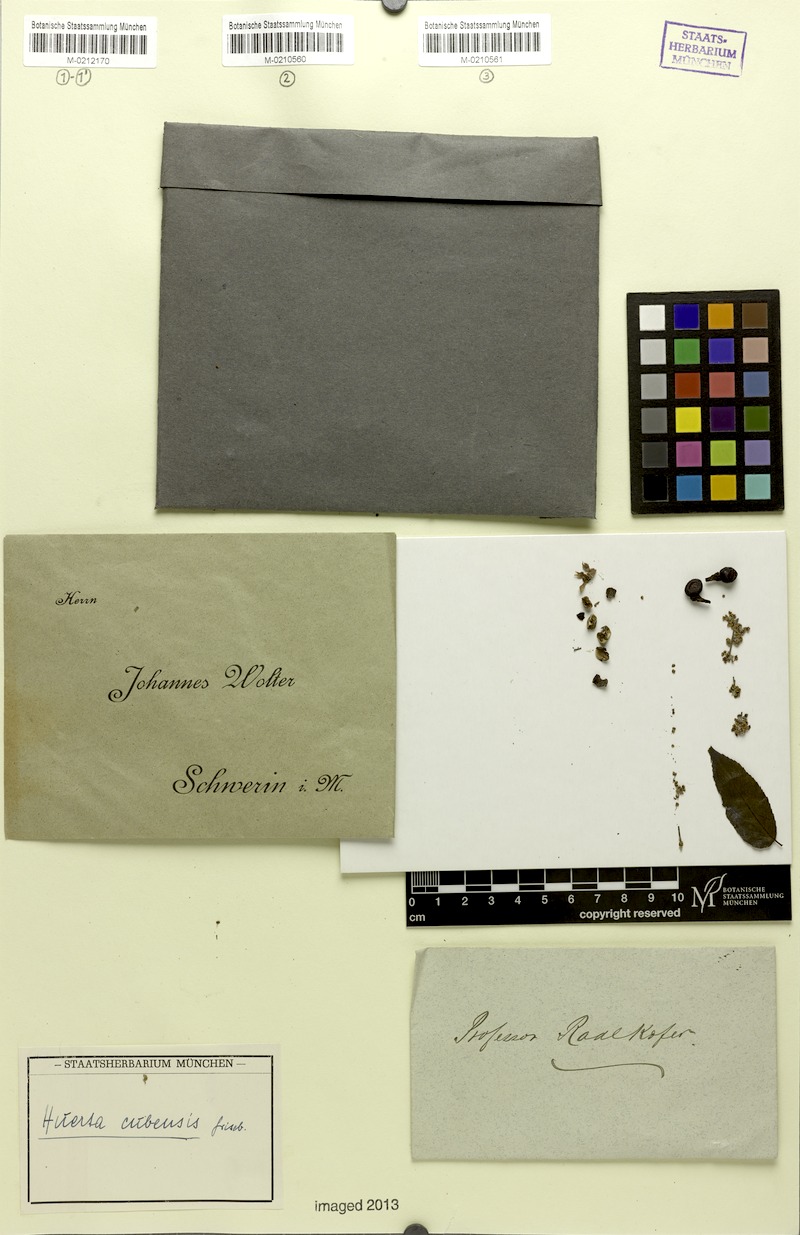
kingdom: Plantae
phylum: Tracheophyta
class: Magnoliopsida
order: Huerteales
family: Tapisciaceae
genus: Huertea
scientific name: Huertea cubensis
